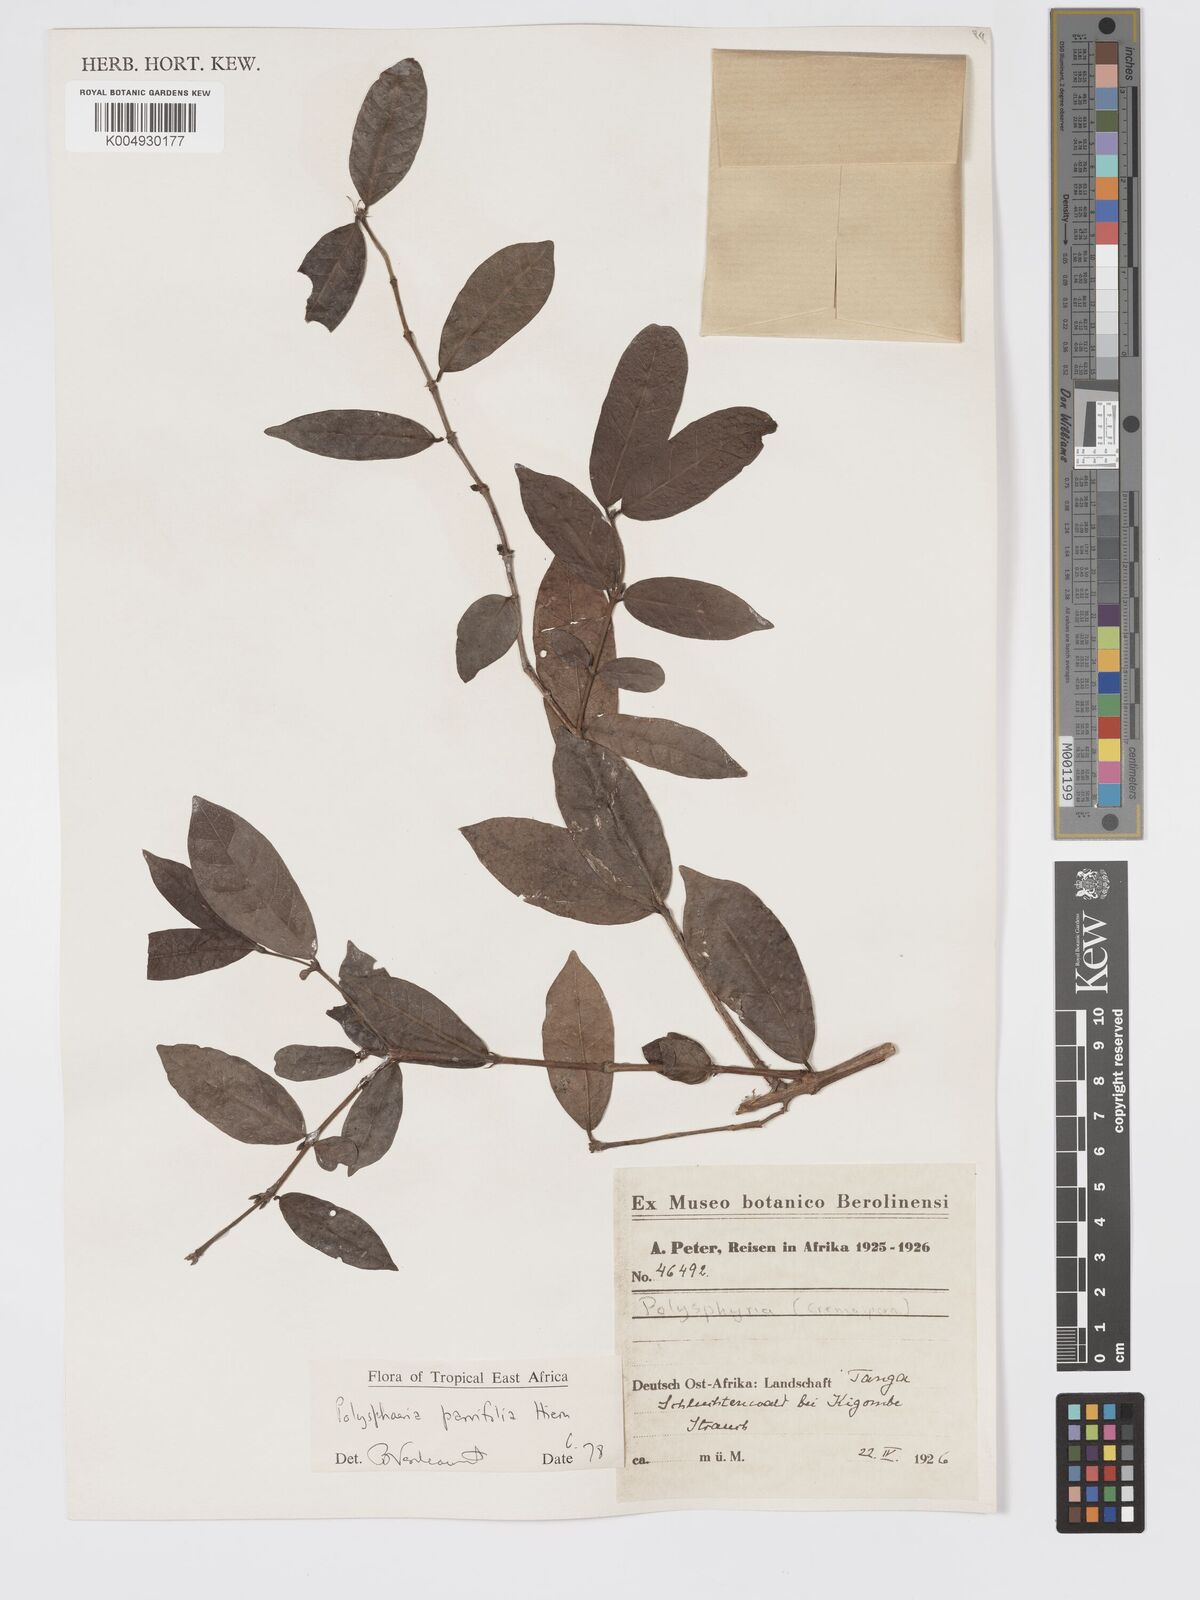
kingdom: Plantae
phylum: Tracheophyta
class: Magnoliopsida
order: Gentianales
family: Rubiaceae
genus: Polysphaeria
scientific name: Polysphaeria parvifolia
